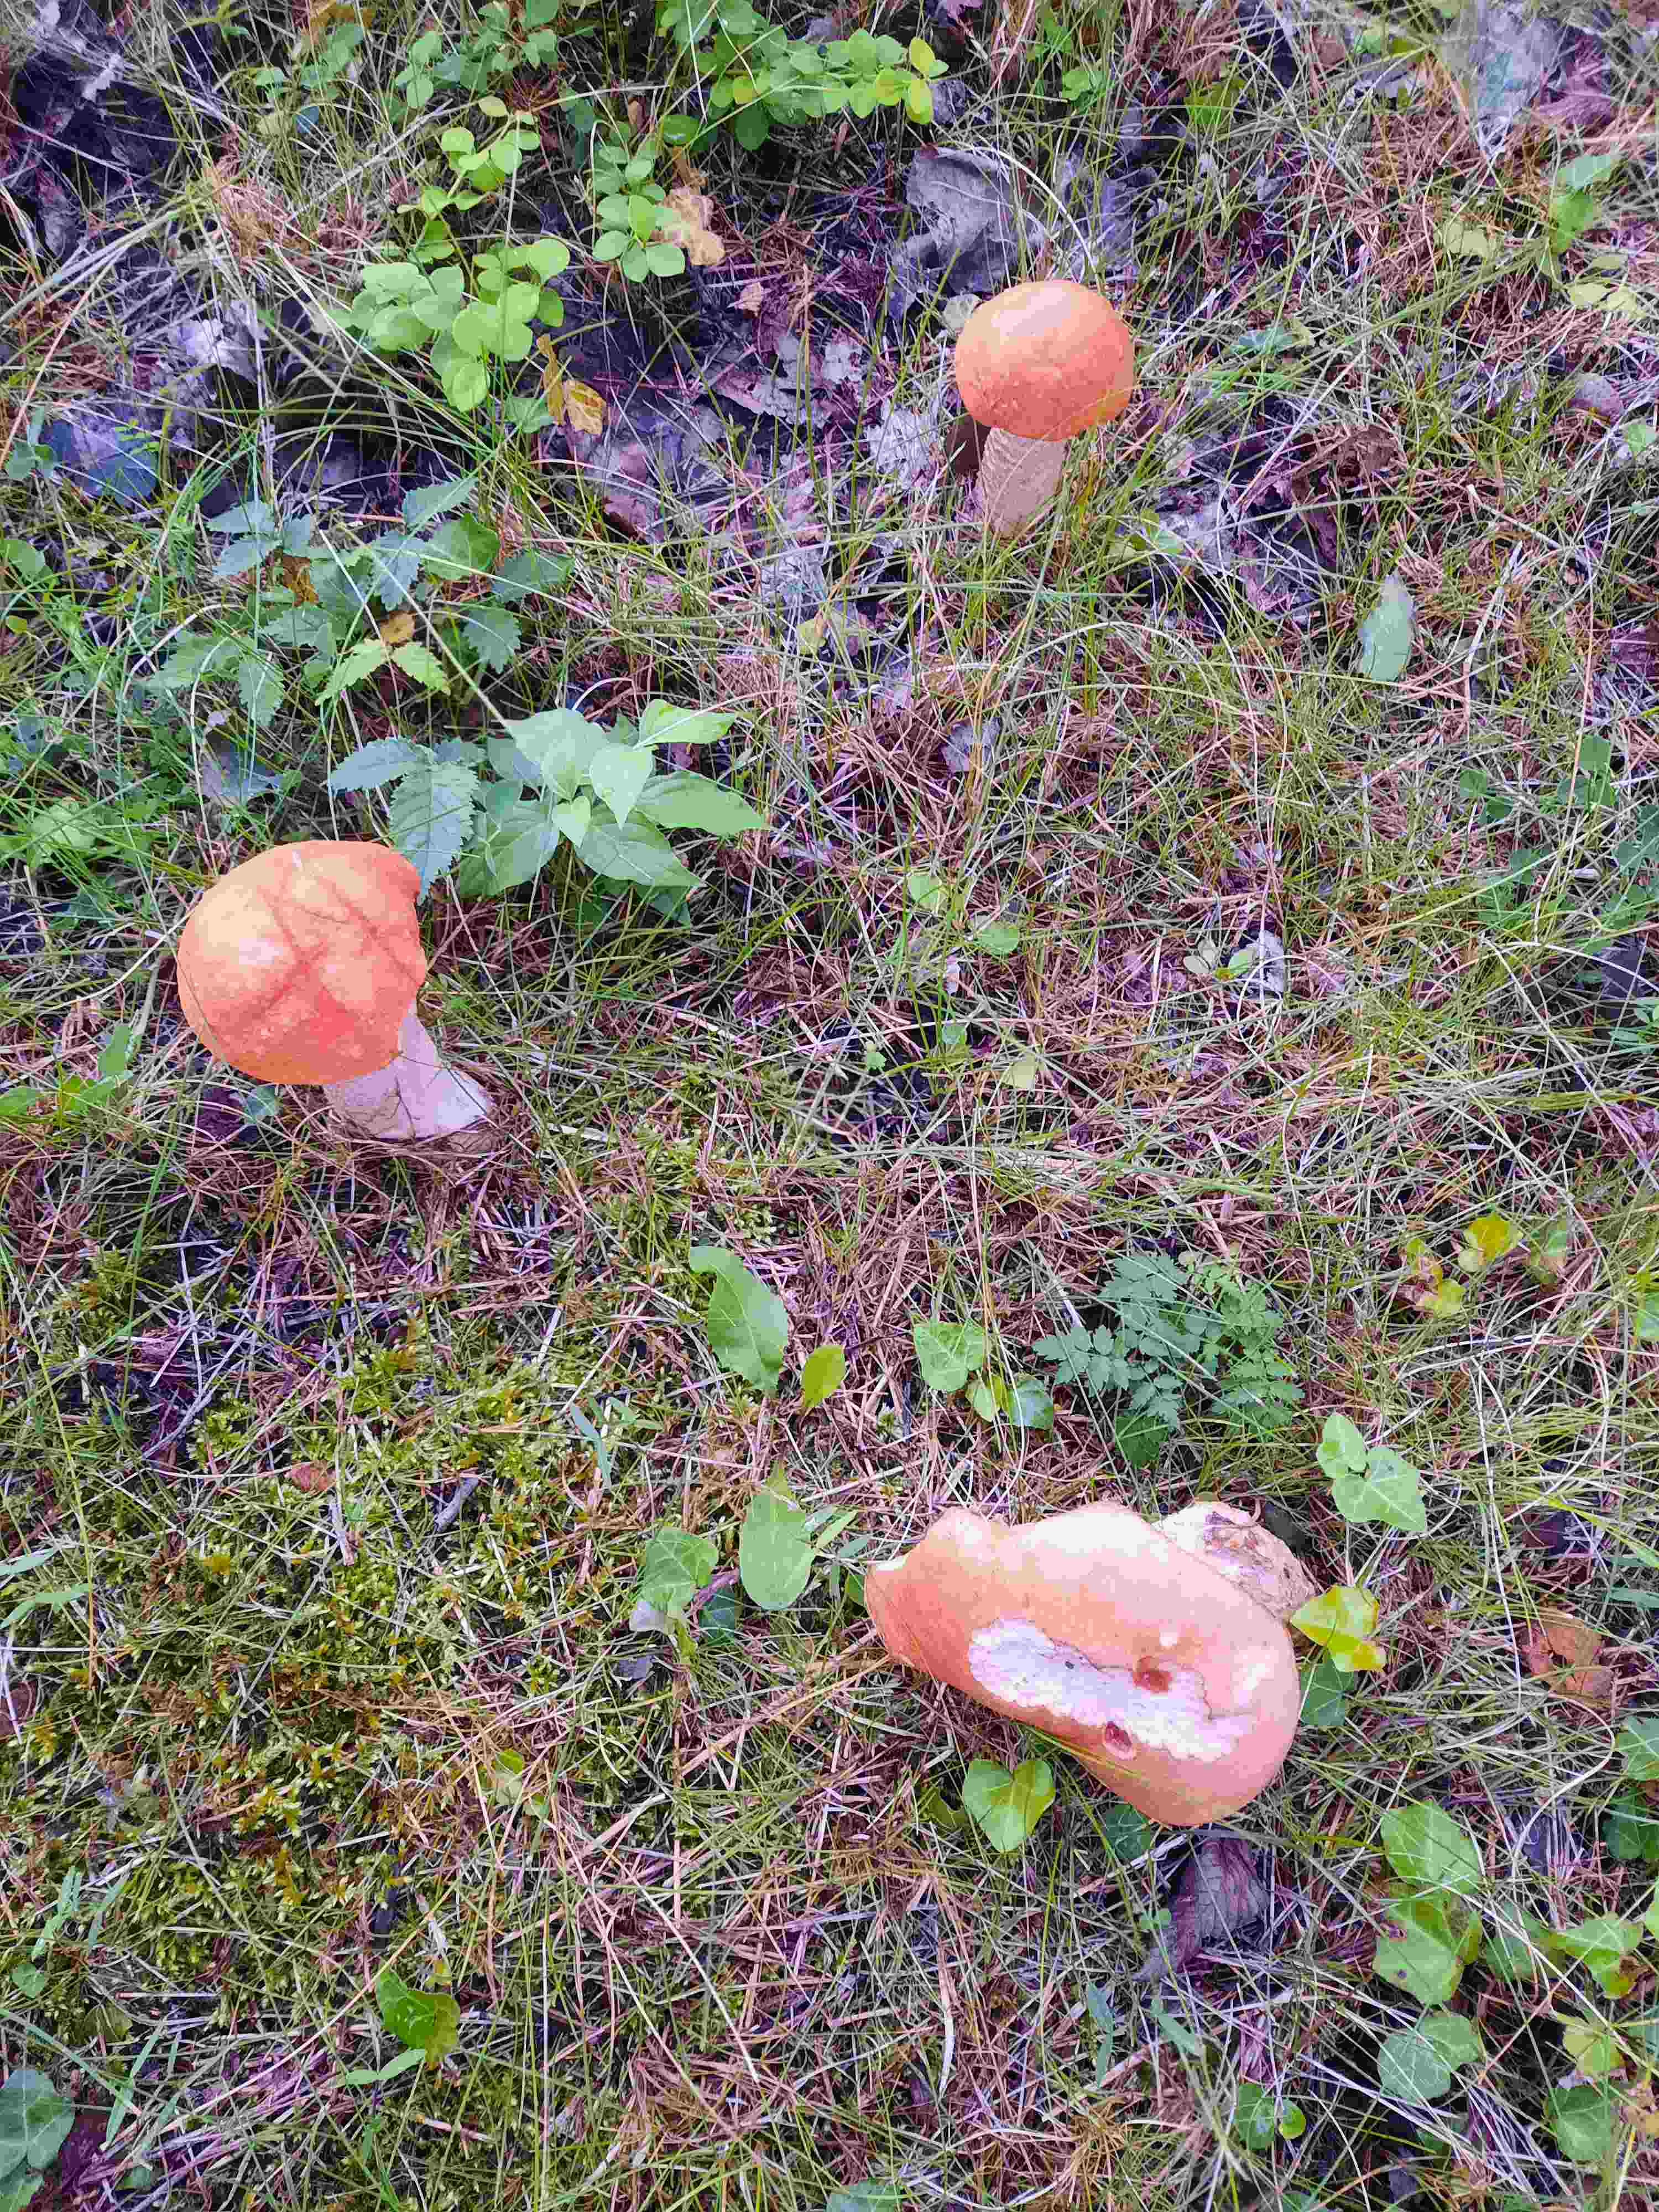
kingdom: Fungi
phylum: Basidiomycota
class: Agaricomycetes
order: Boletales
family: Boletaceae
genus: Leccinum
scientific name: Leccinum albostipitatum
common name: aspe-skælrørhat
